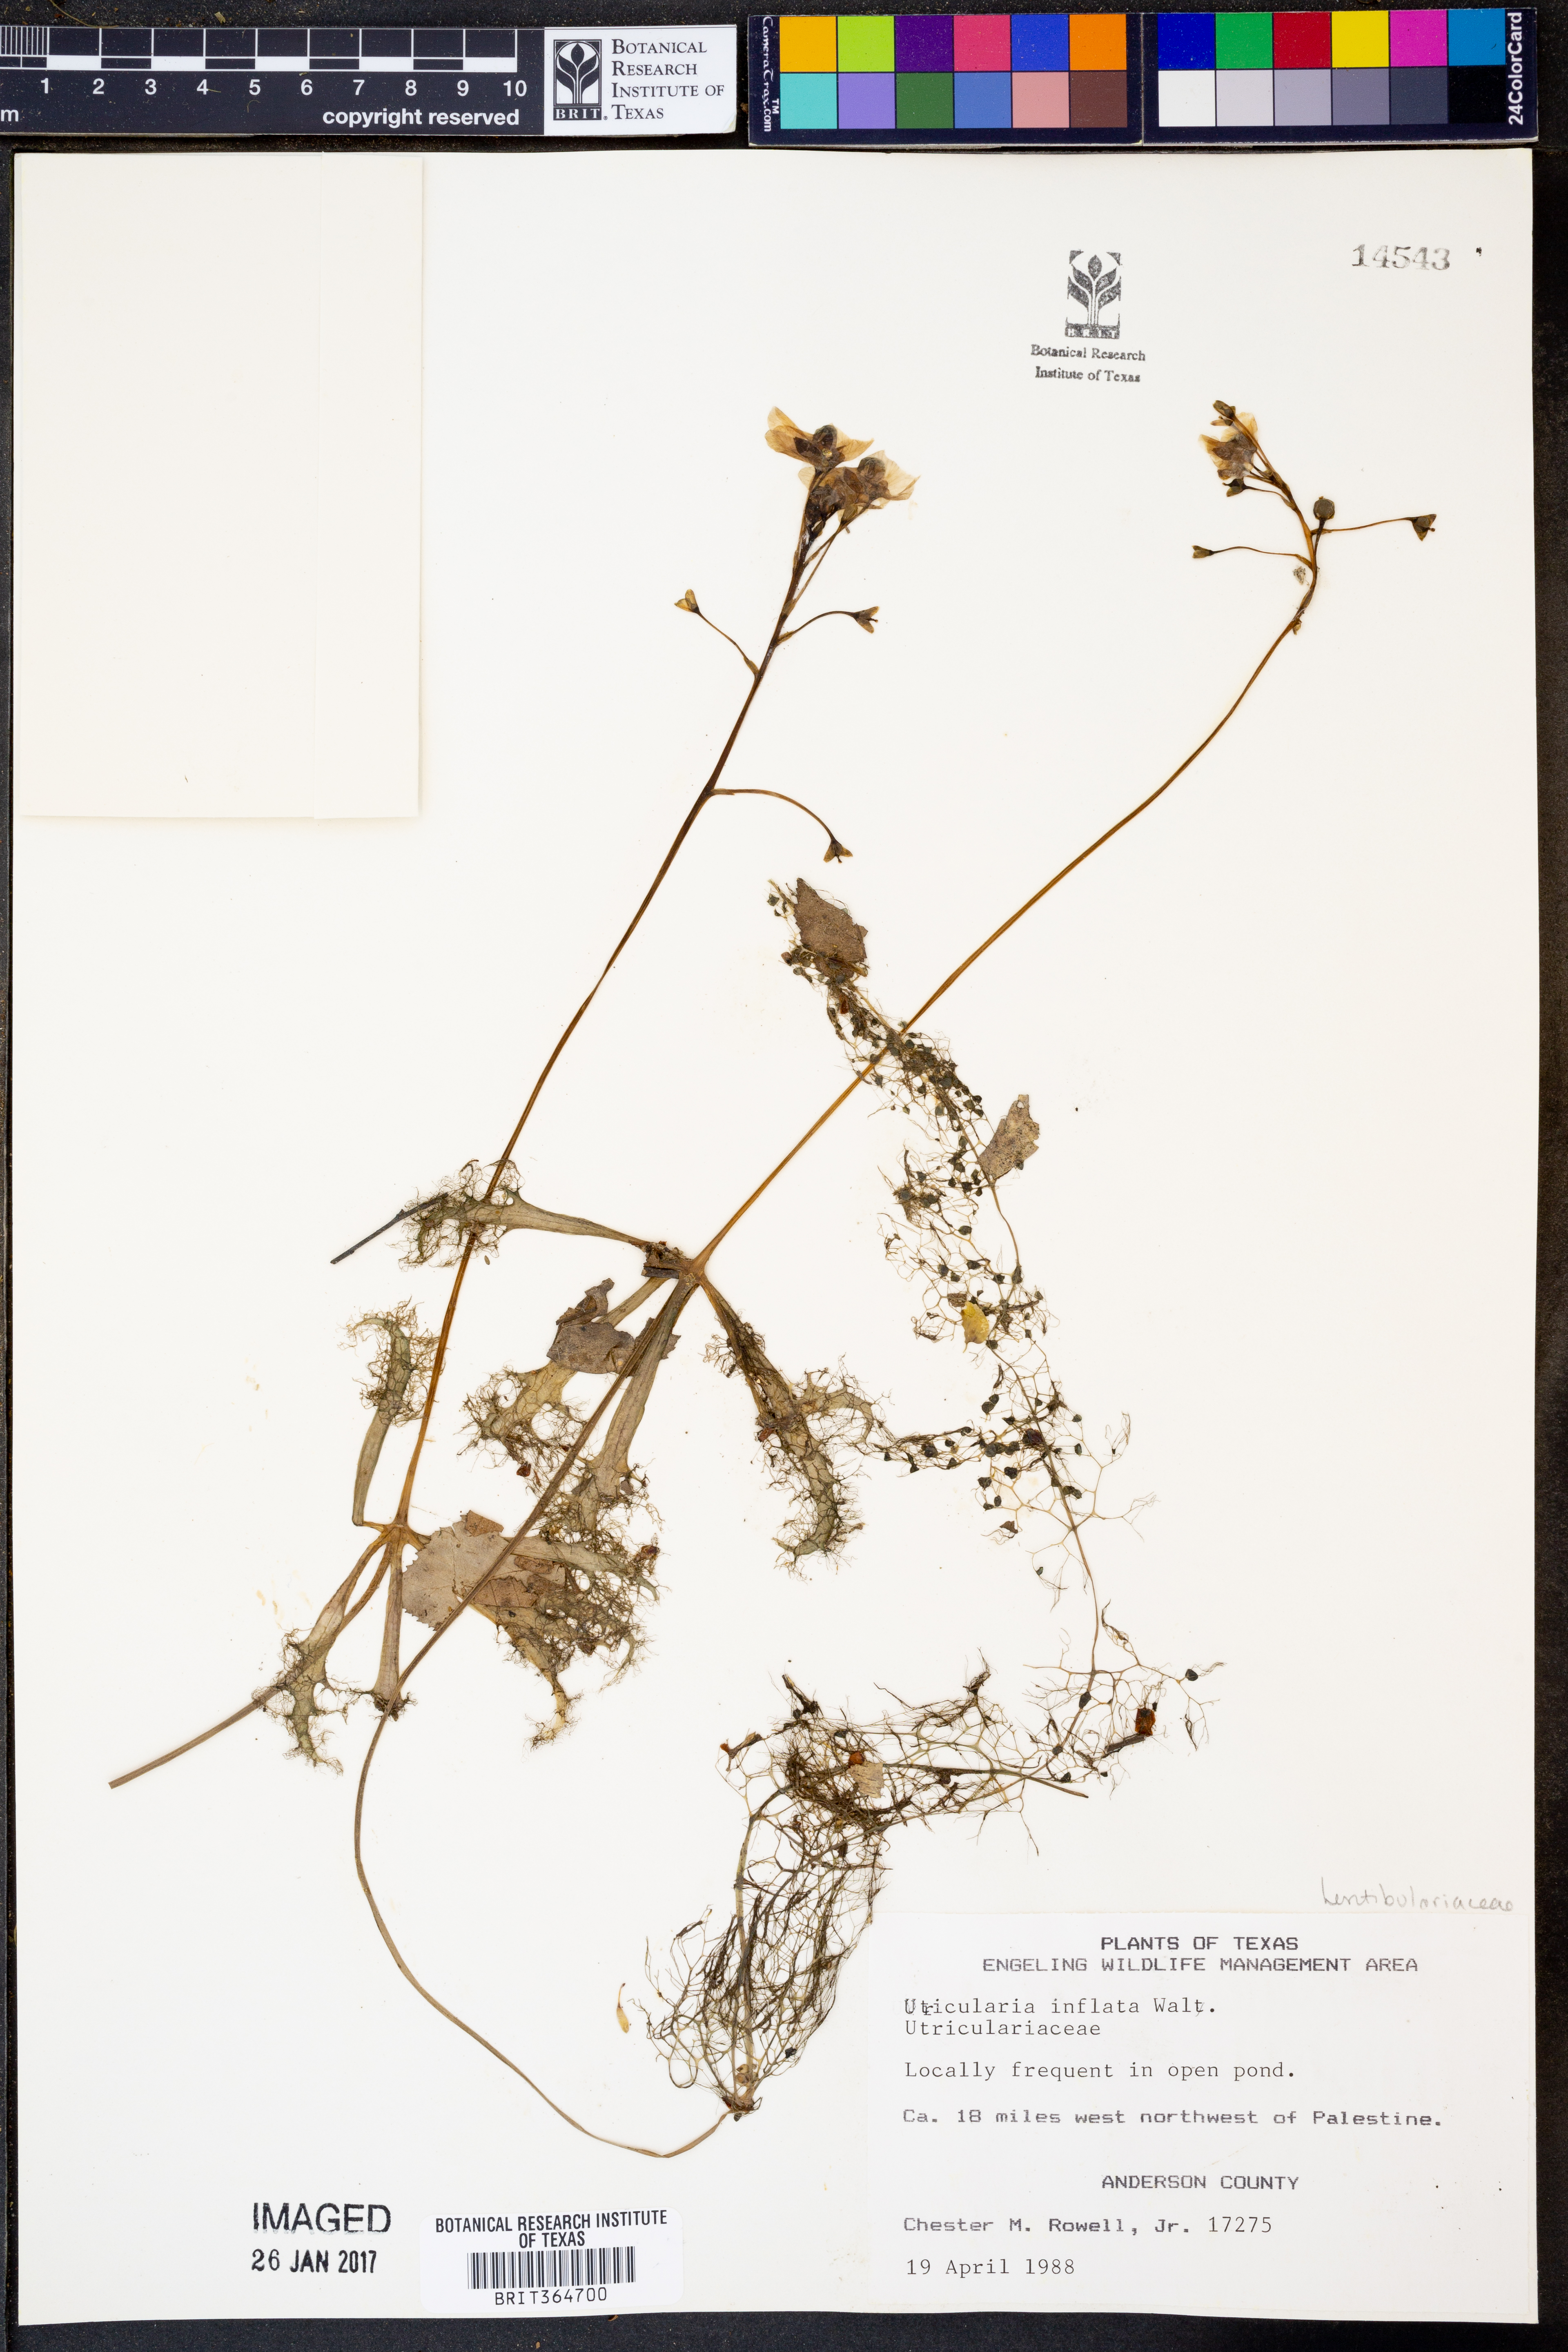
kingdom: Plantae
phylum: Tracheophyta
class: Magnoliopsida
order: Lamiales
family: Lentibulariaceae
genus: Utricularia
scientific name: Utricularia inflata
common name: Floating bladderwort
